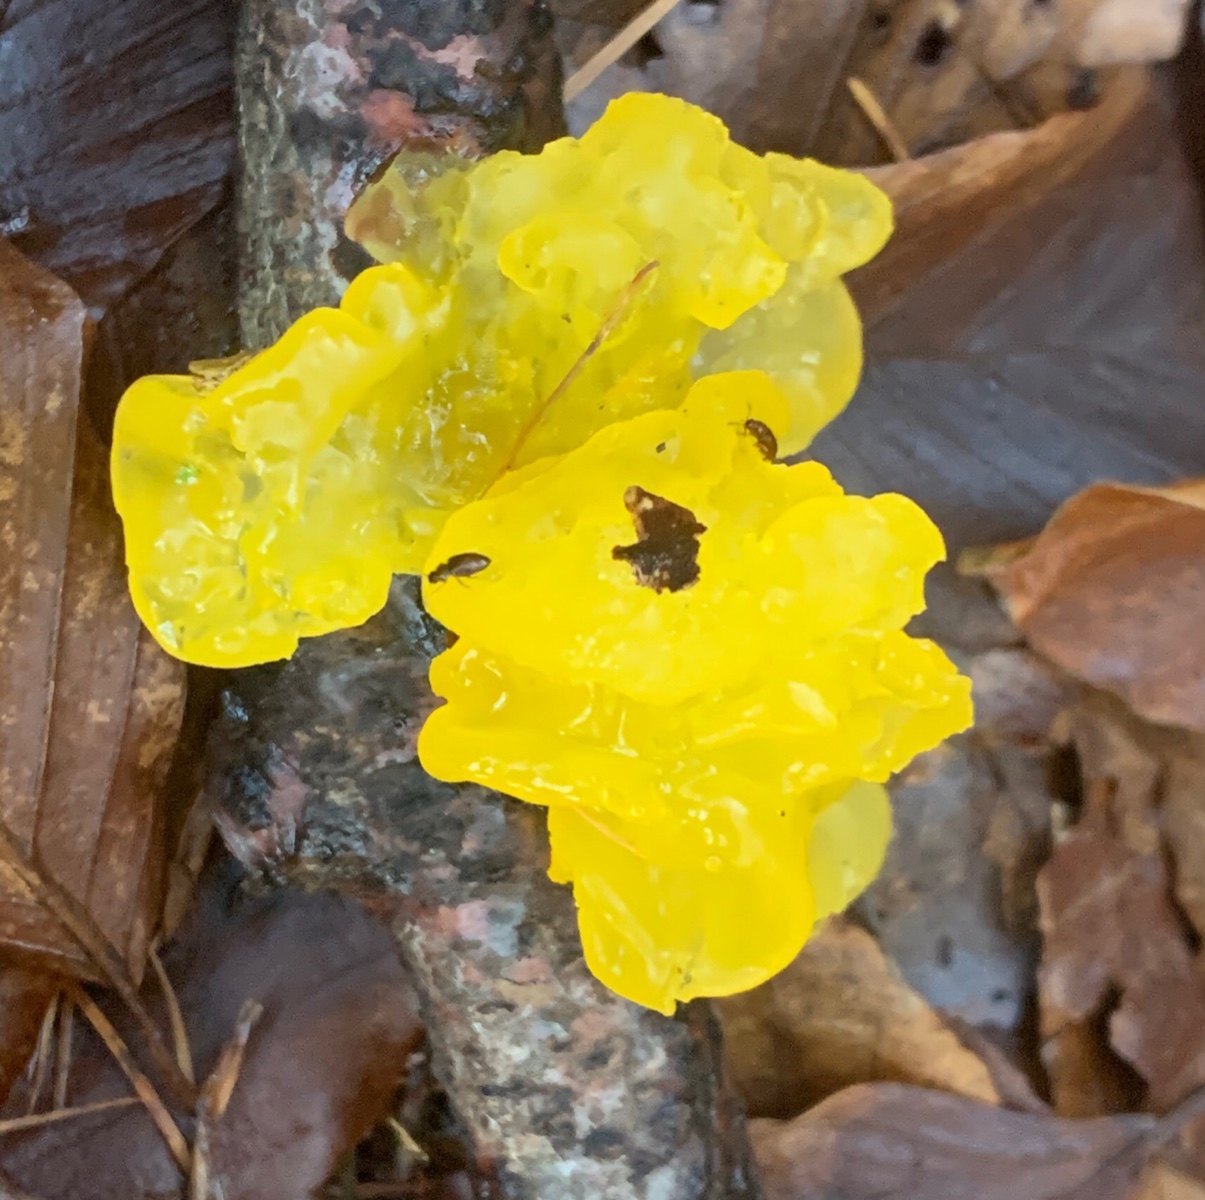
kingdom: Fungi
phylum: Basidiomycota
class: Tremellomycetes
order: Tremellales
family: Tremellaceae
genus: Tremella
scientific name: Tremella mesenterica
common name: gul bævresvamp
